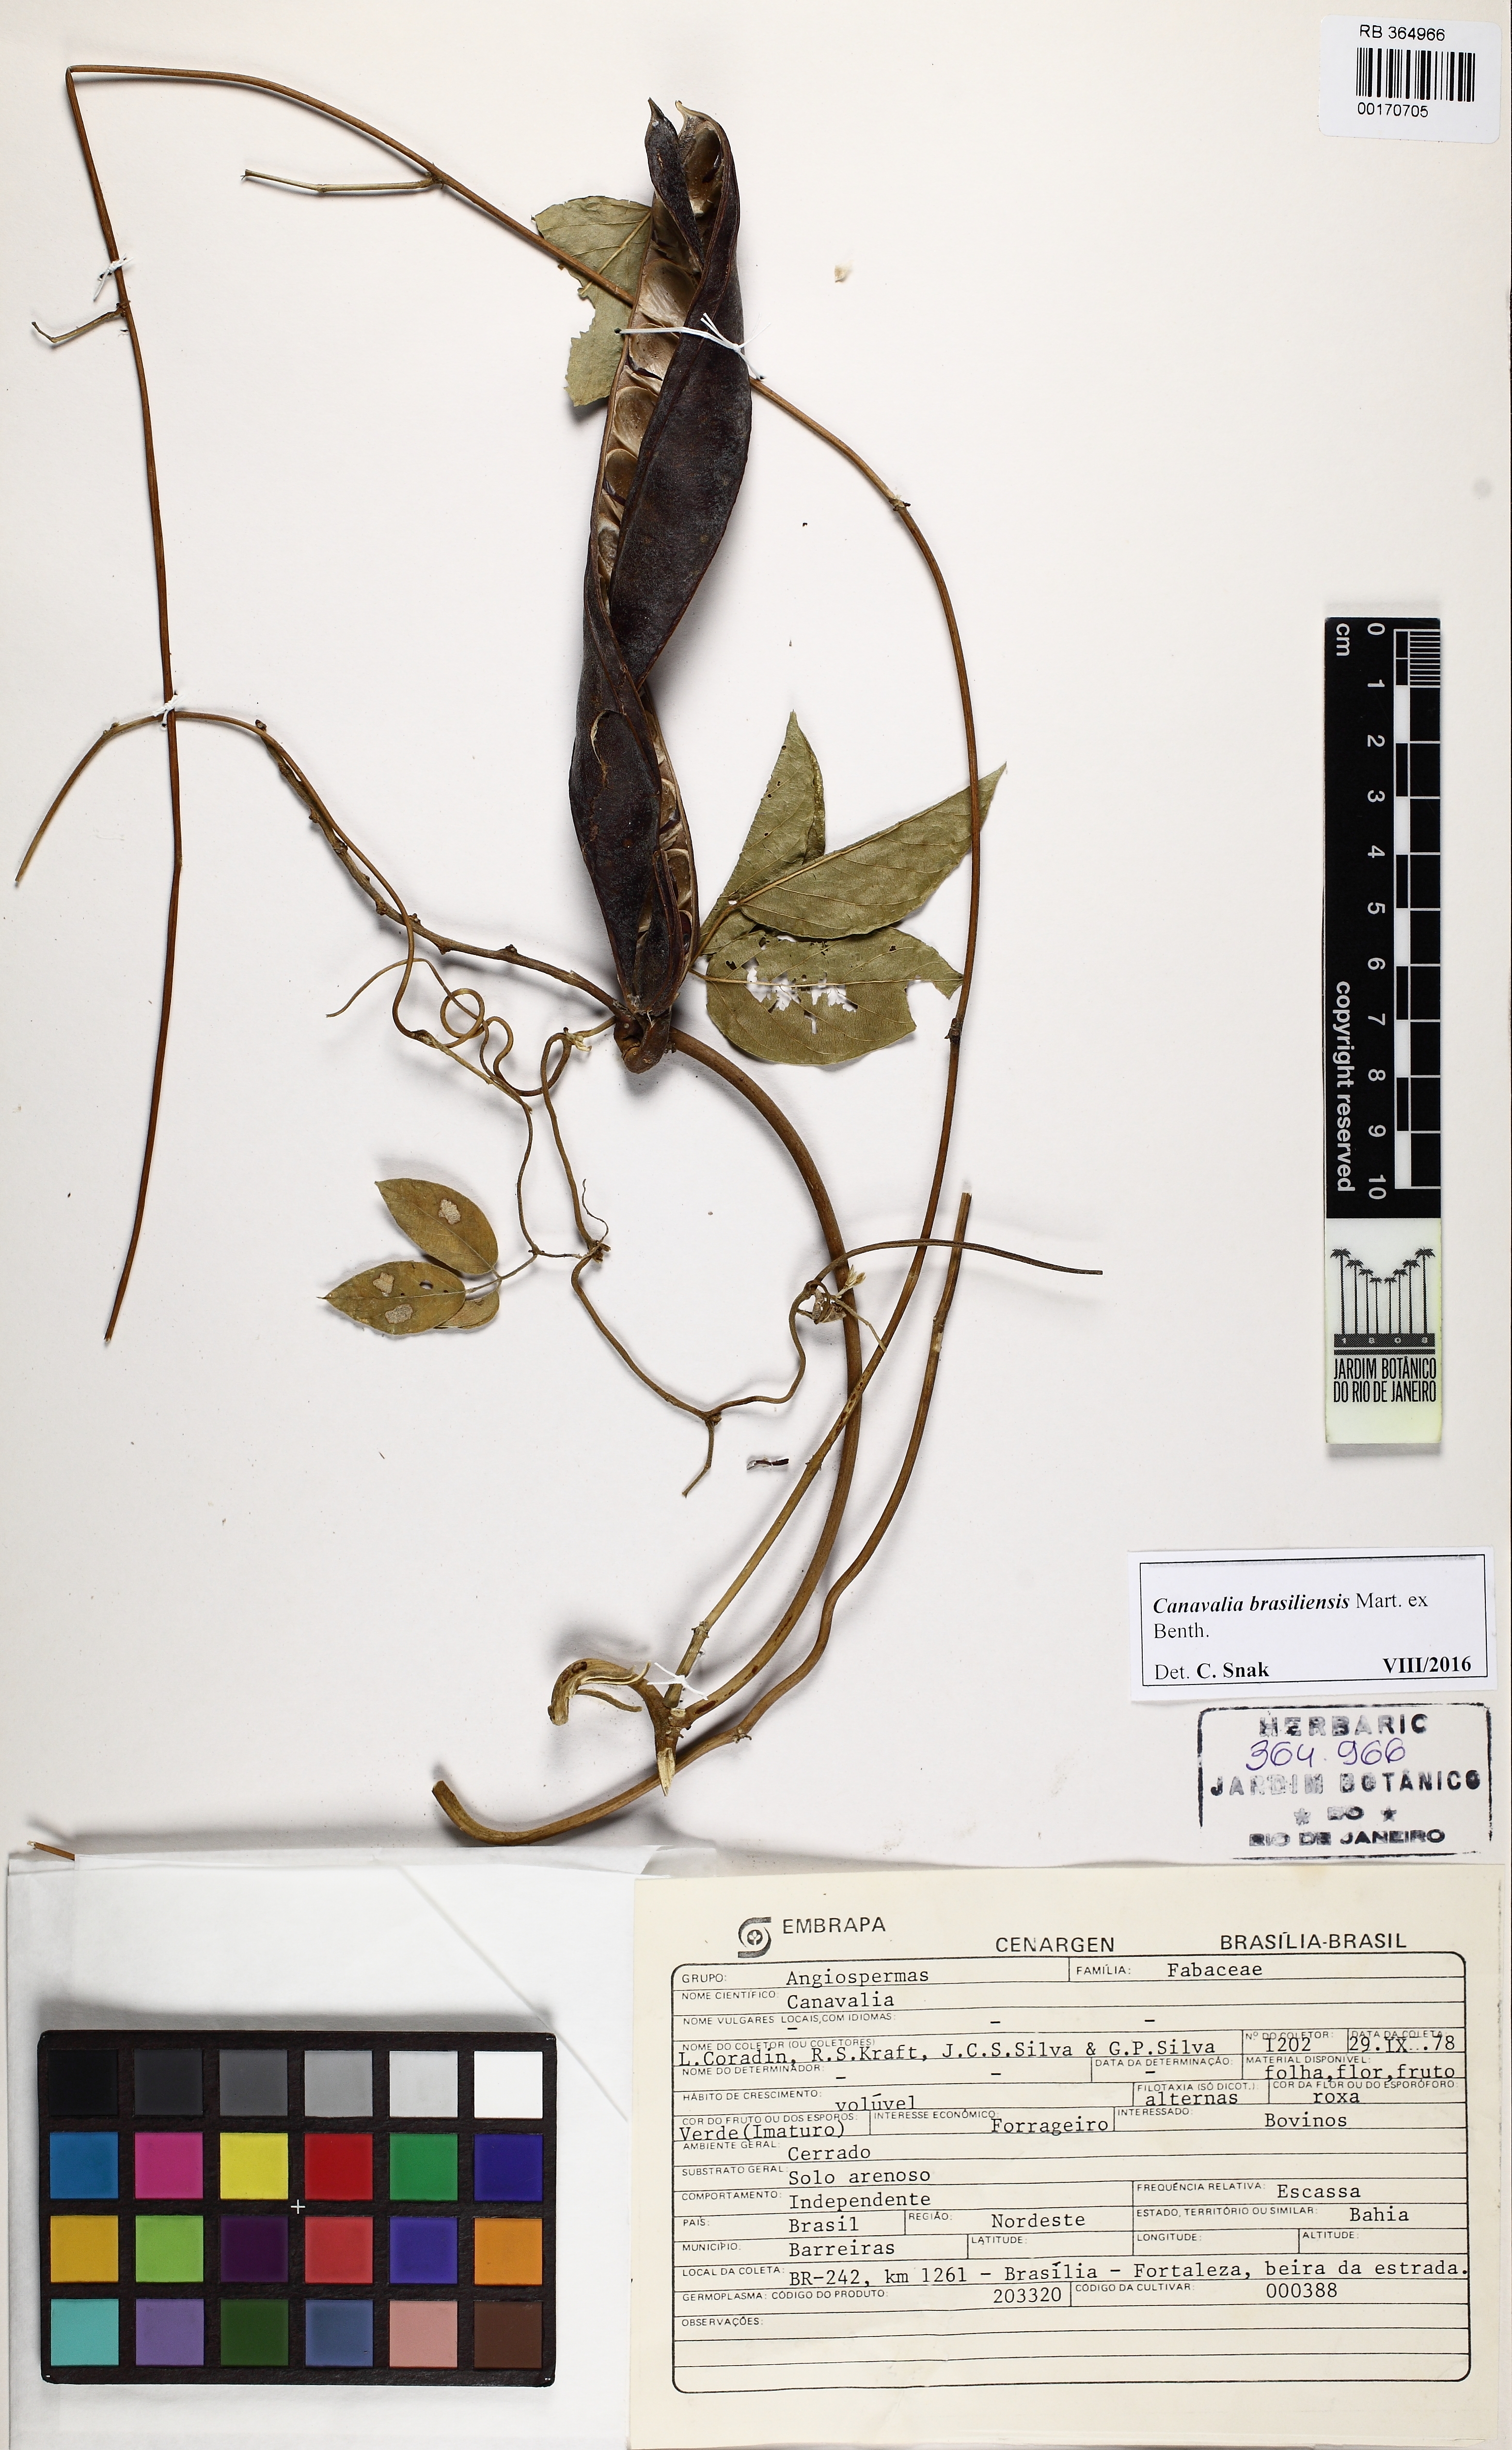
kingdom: Plantae
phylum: Tracheophyta
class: Magnoliopsida
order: Fabales
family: Fabaceae
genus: Canavalia
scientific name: Canavalia brasiliensis
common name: Barbicou-bean
